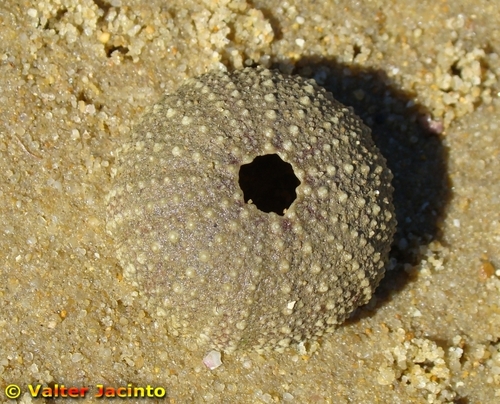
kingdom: Animalia
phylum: Echinodermata
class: Echinoidea
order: Camarodonta
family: Toxopneustidae
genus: Sphaerechinus
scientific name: Sphaerechinus granularis
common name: Violet sea urchin
